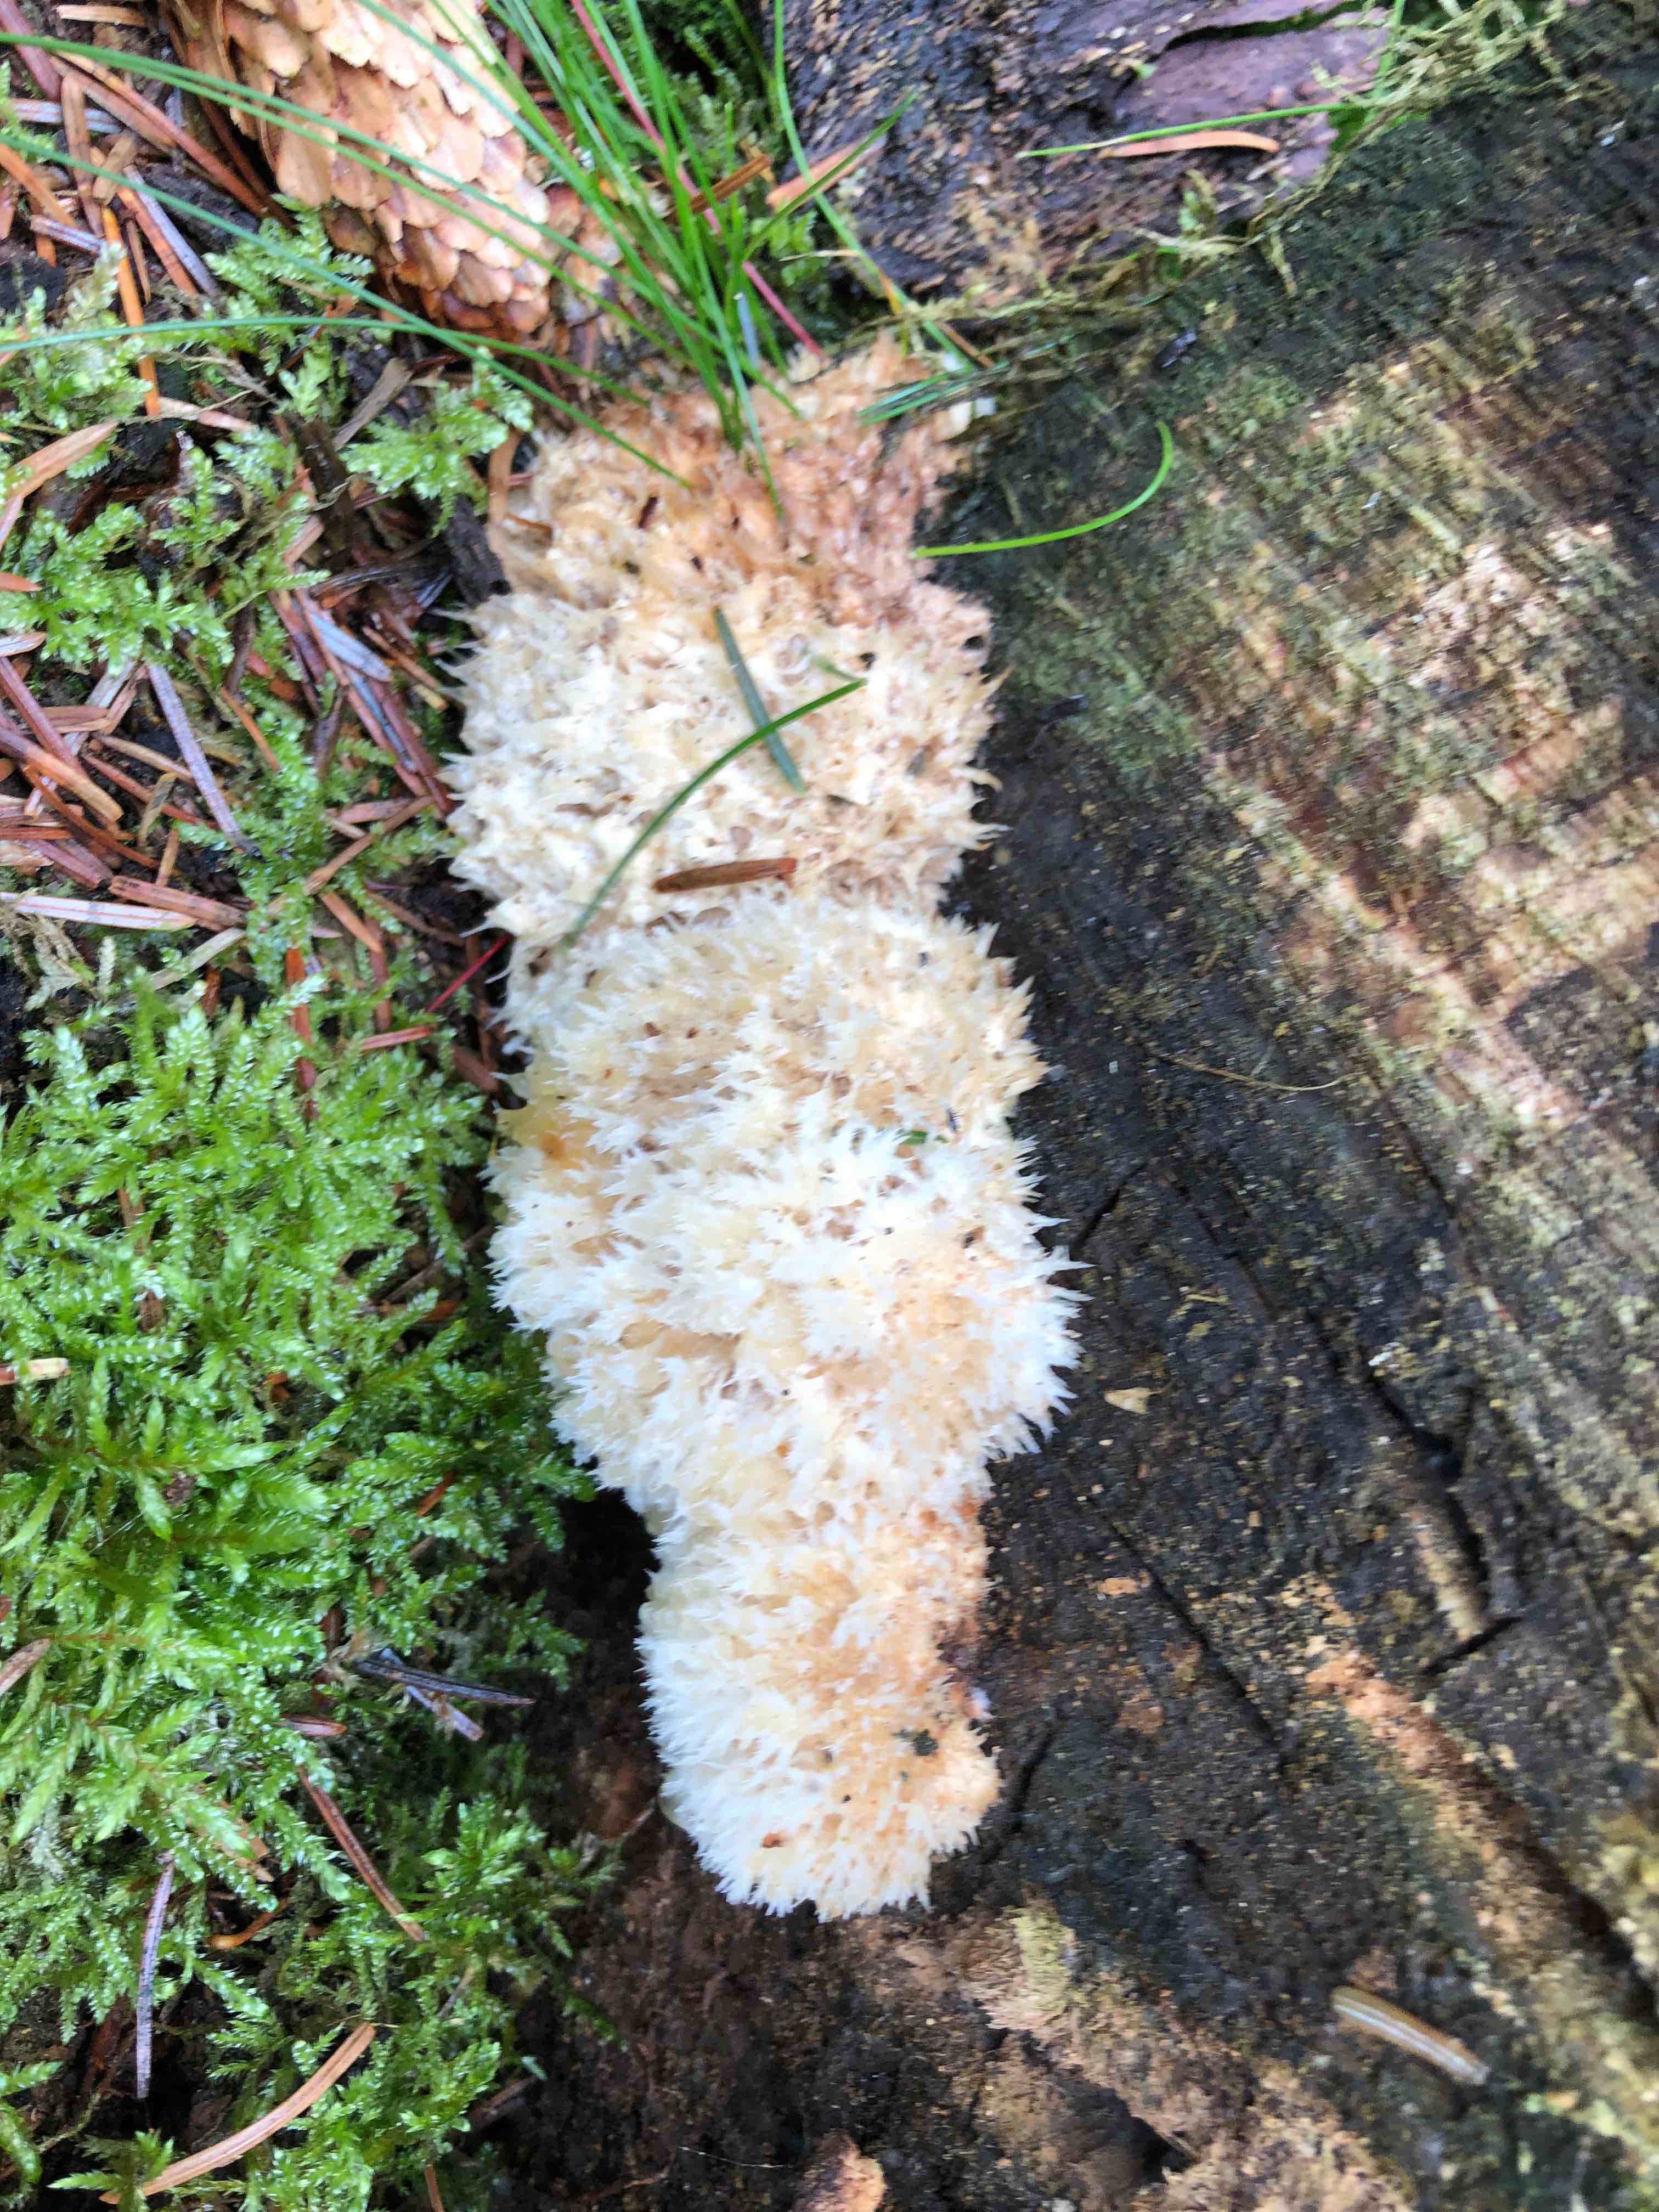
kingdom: Fungi
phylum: Basidiomycota
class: Agaricomycetes
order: Polyporales
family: Dacryobolaceae
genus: Postia
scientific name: Postia ptychogaster
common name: støvende kødporesvamp
